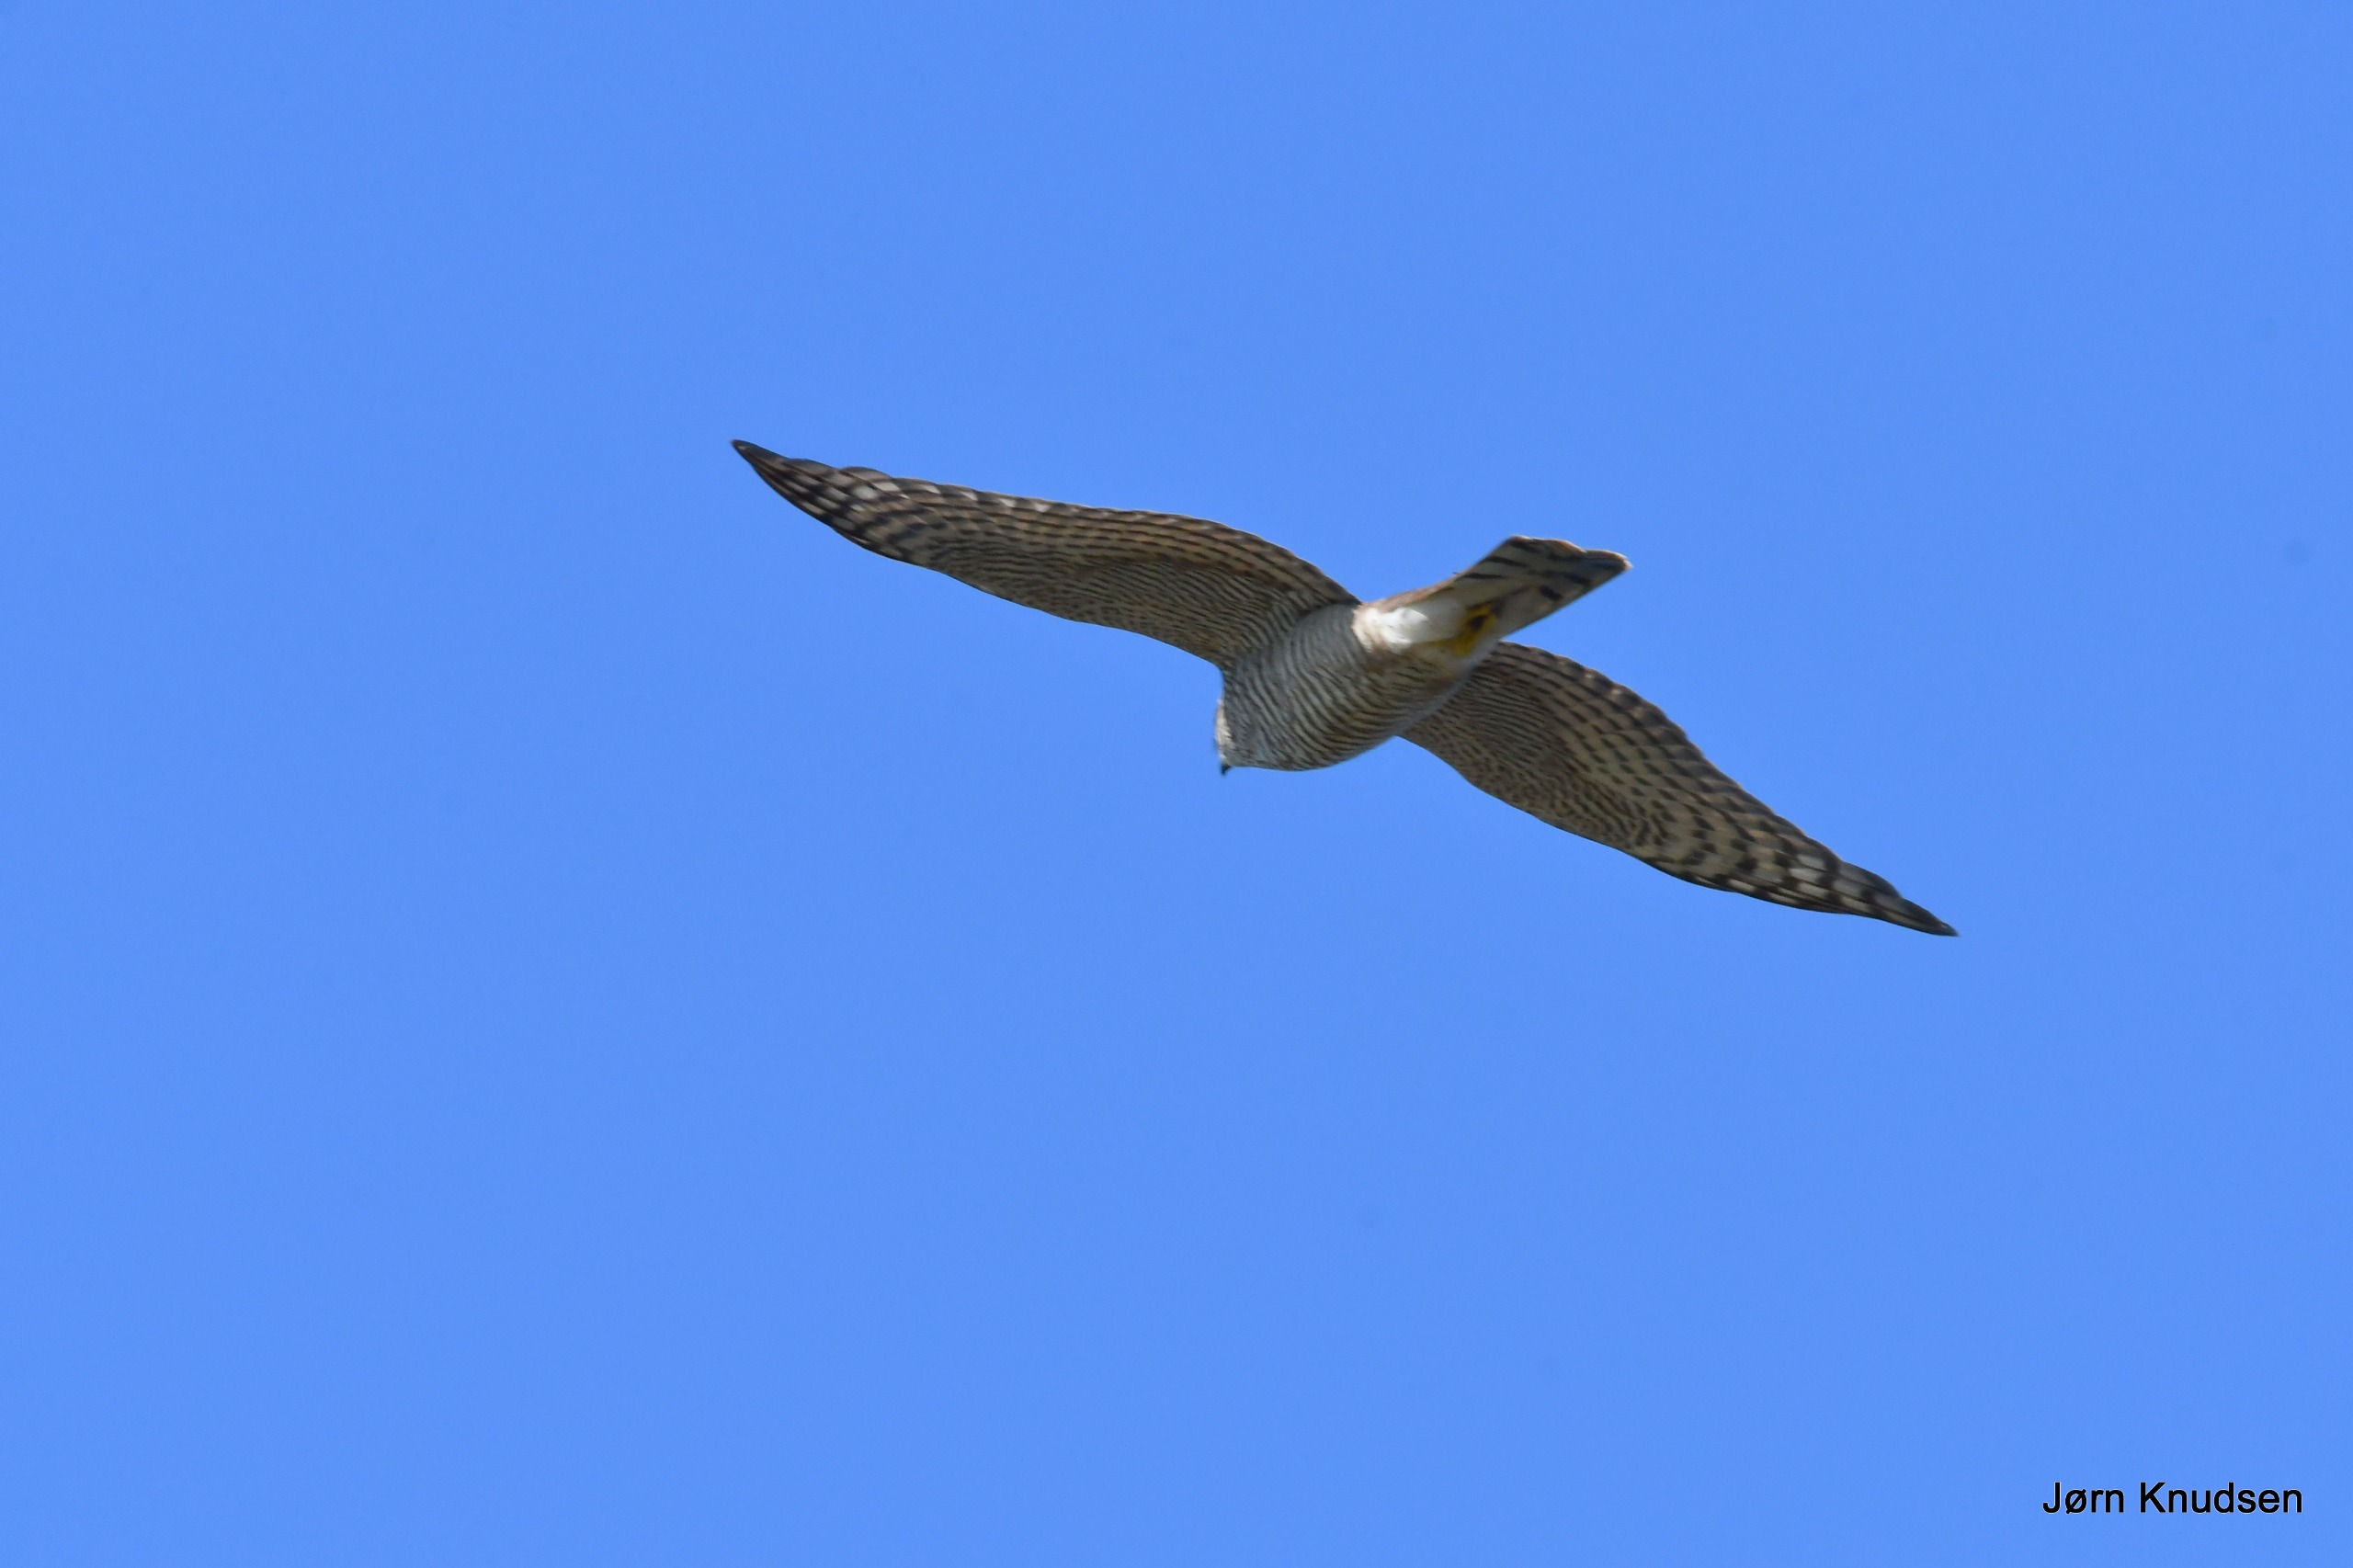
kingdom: Animalia
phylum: Chordata
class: Aves
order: Accipitriformes
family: Accipitridae
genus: Accipiter
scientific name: Accipiter nisus
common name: Spurvehøg
